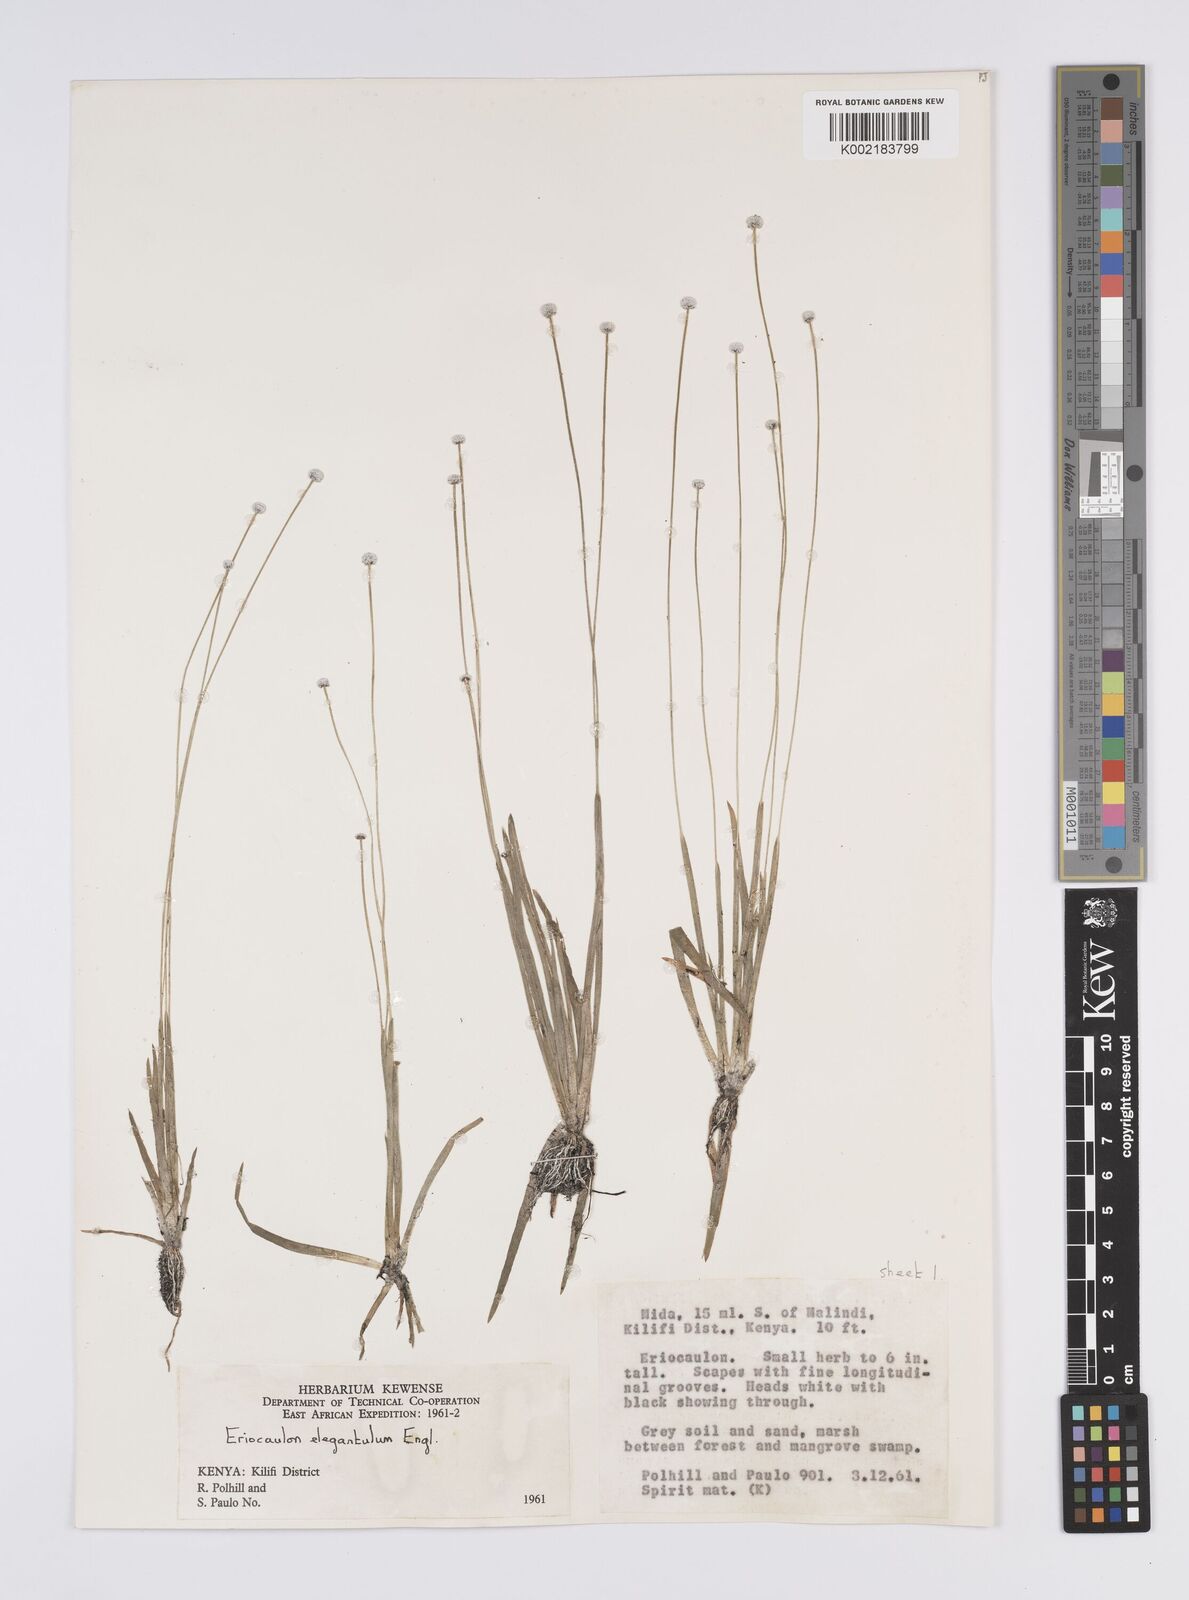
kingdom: Plantae
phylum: Tracheophyta
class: Liliopsida
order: Poales
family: Eriocaulaceae
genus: Eriocaulon
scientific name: Eriocaulon elegantulum
